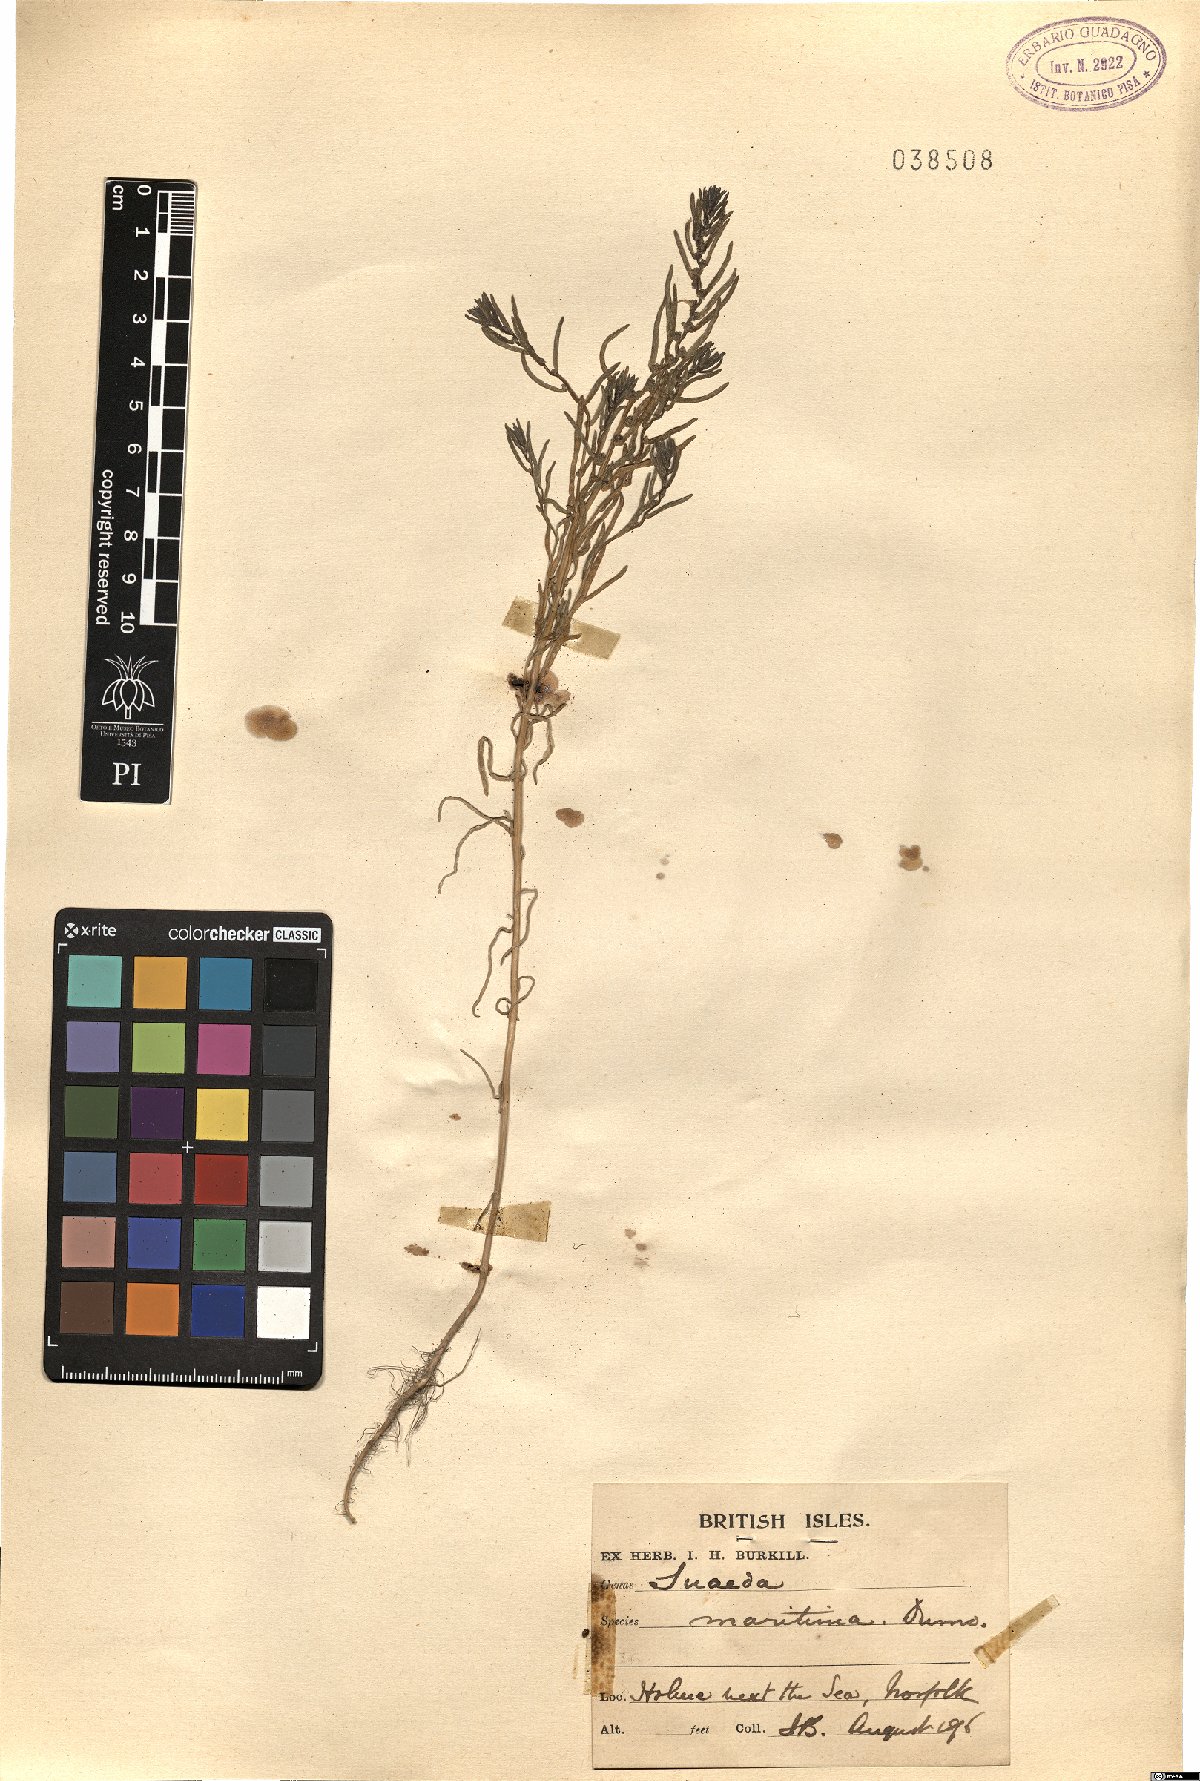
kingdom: Plantae
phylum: Tracheophyta
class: Magnoliopsida
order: Caryophyllales
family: Amaranthaceae
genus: Suaeda
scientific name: Suaeda maritima
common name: Annual sea-blite
